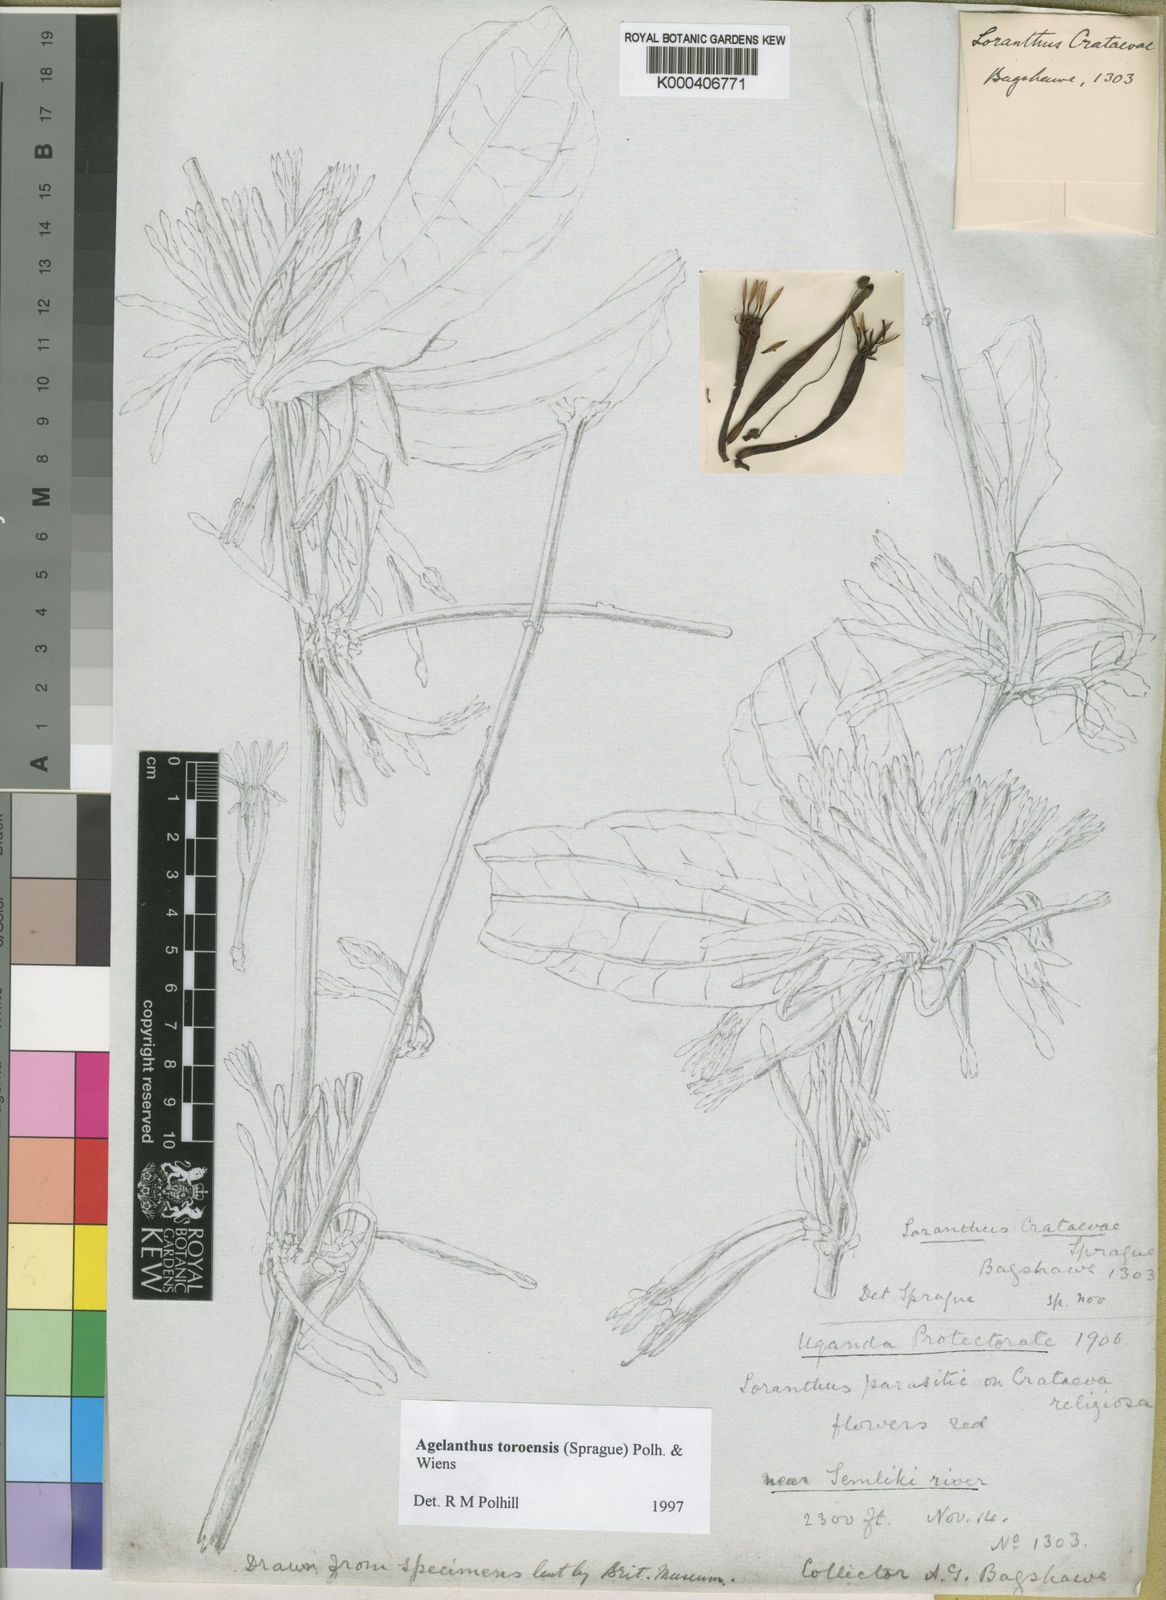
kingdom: Plantae
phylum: Tracheophyta
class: Magnoliopsida
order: Santalales
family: Loranthaceae
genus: Agelanthus
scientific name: Agelanthus toroensis
